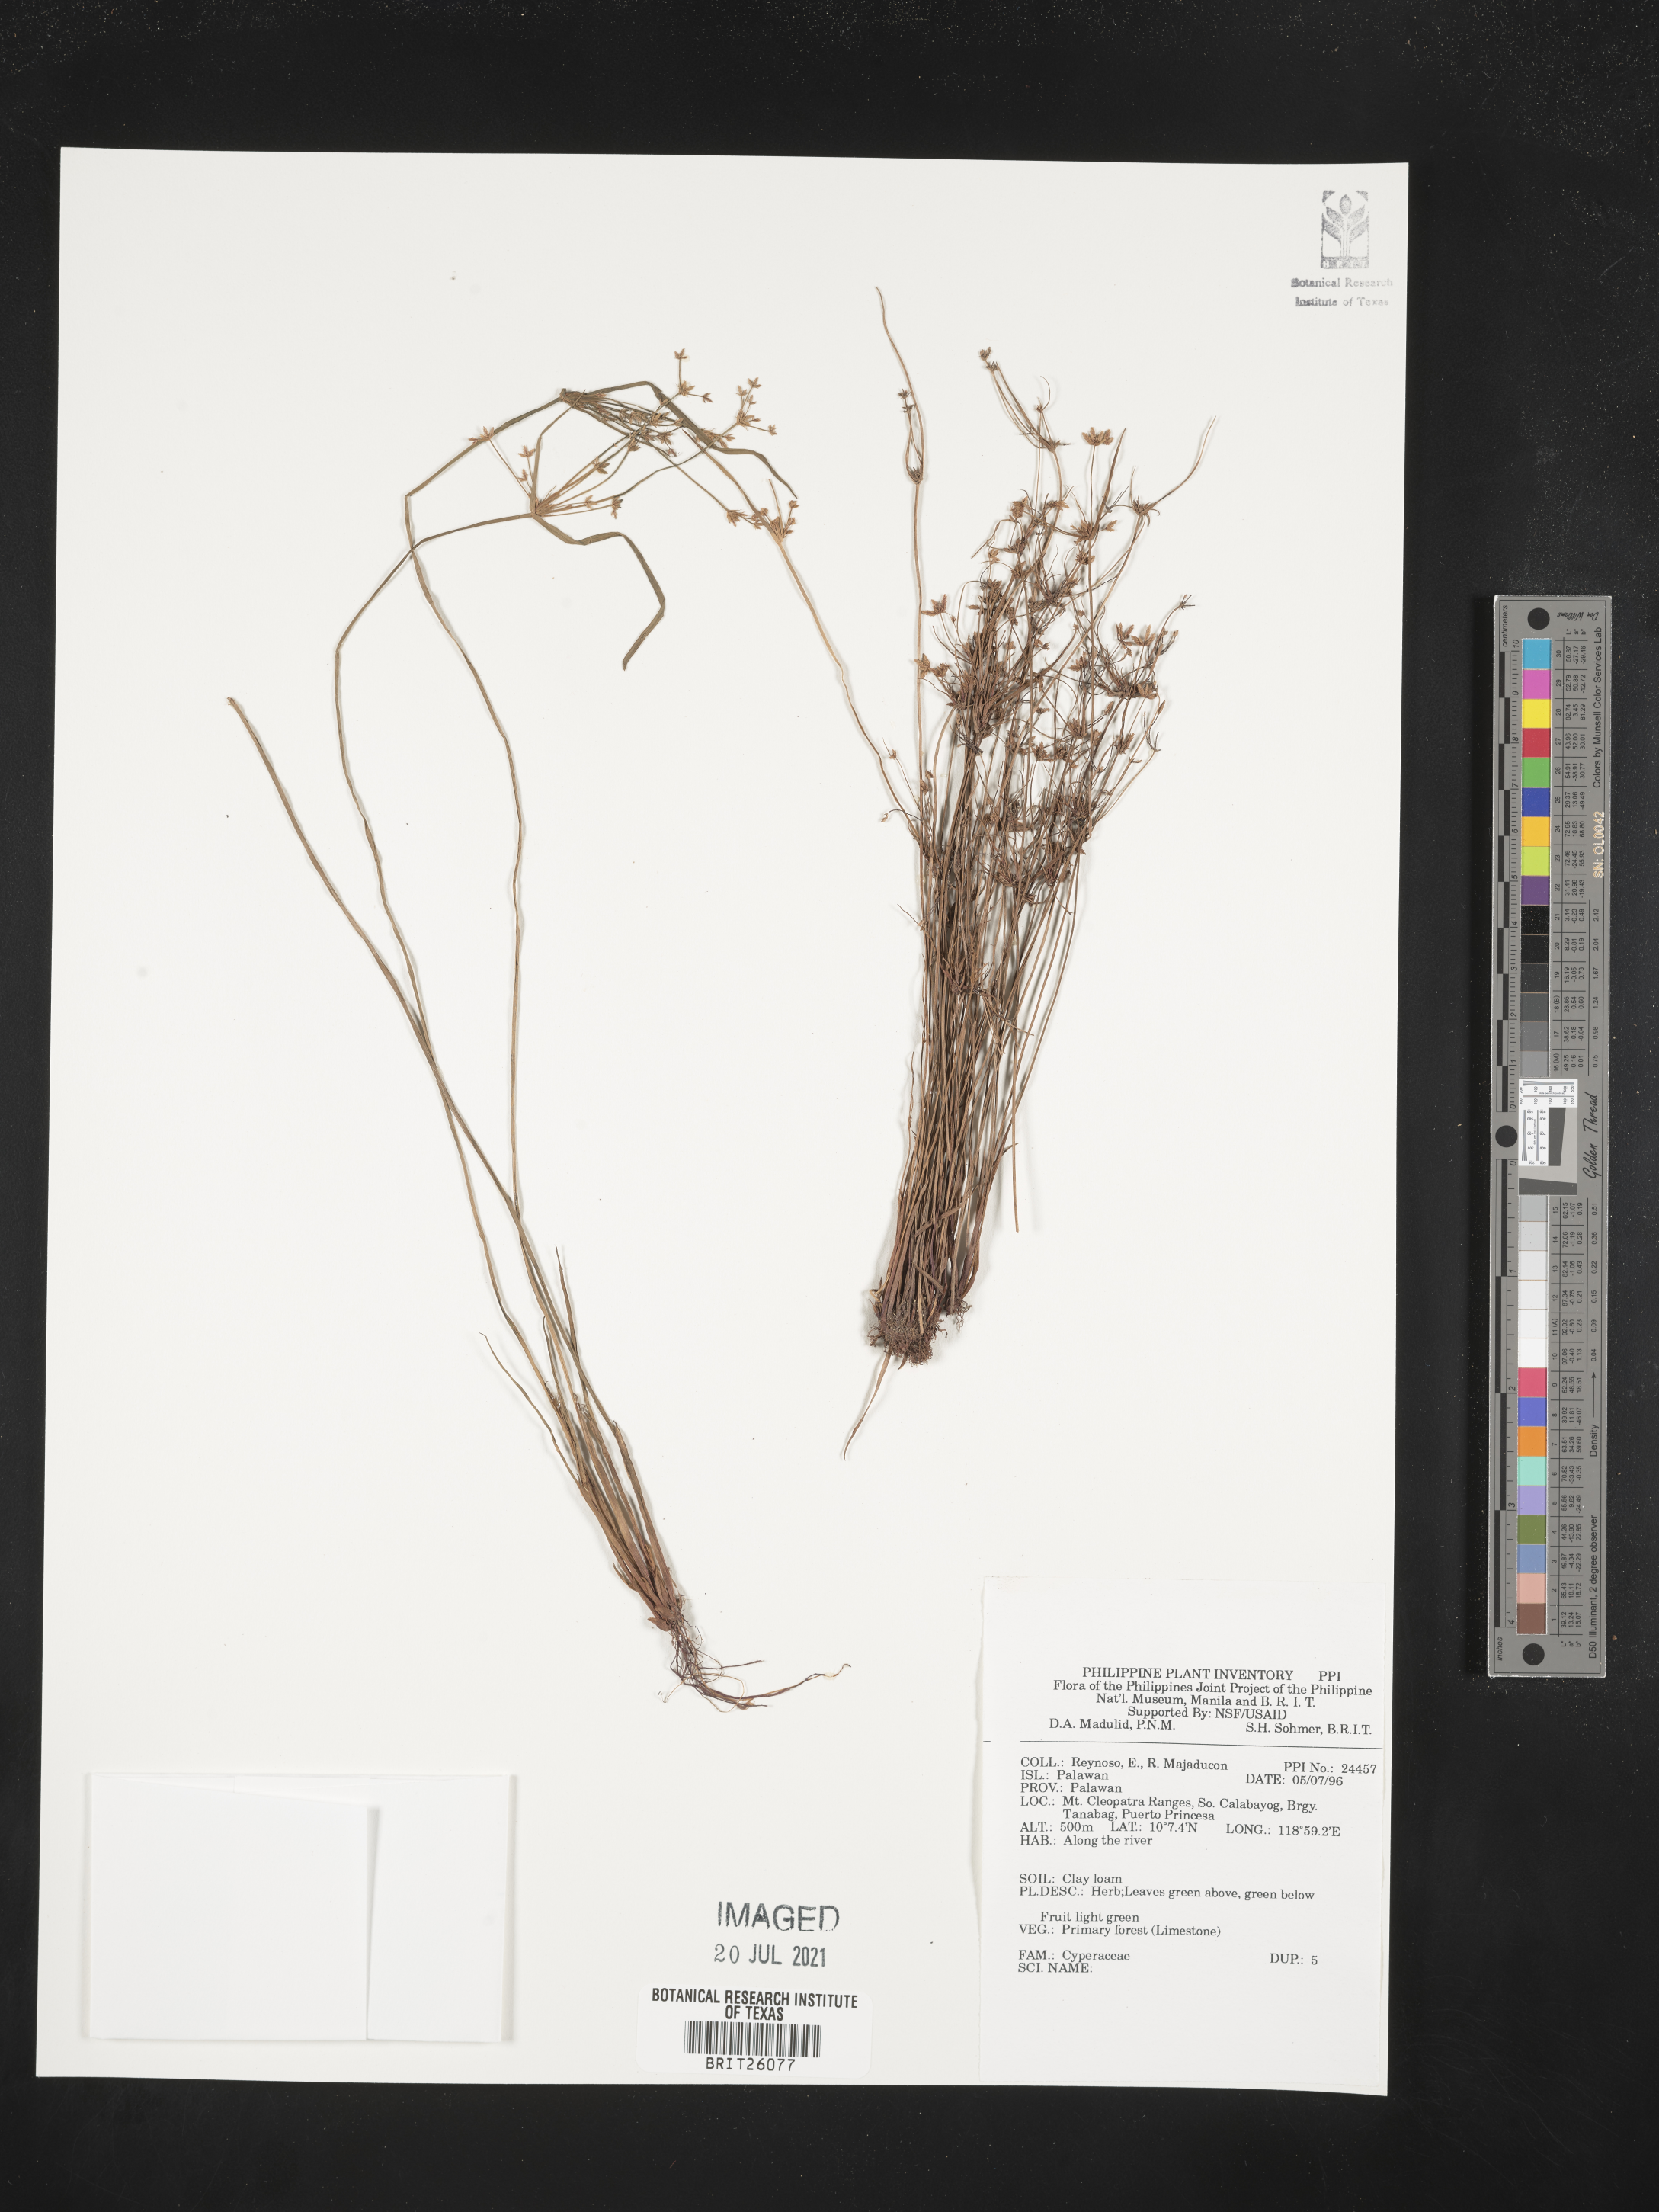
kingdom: Plantae
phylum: Tracheophyta
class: Liliopsida
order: Poales
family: Cyperaceae
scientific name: Cyperaceae
